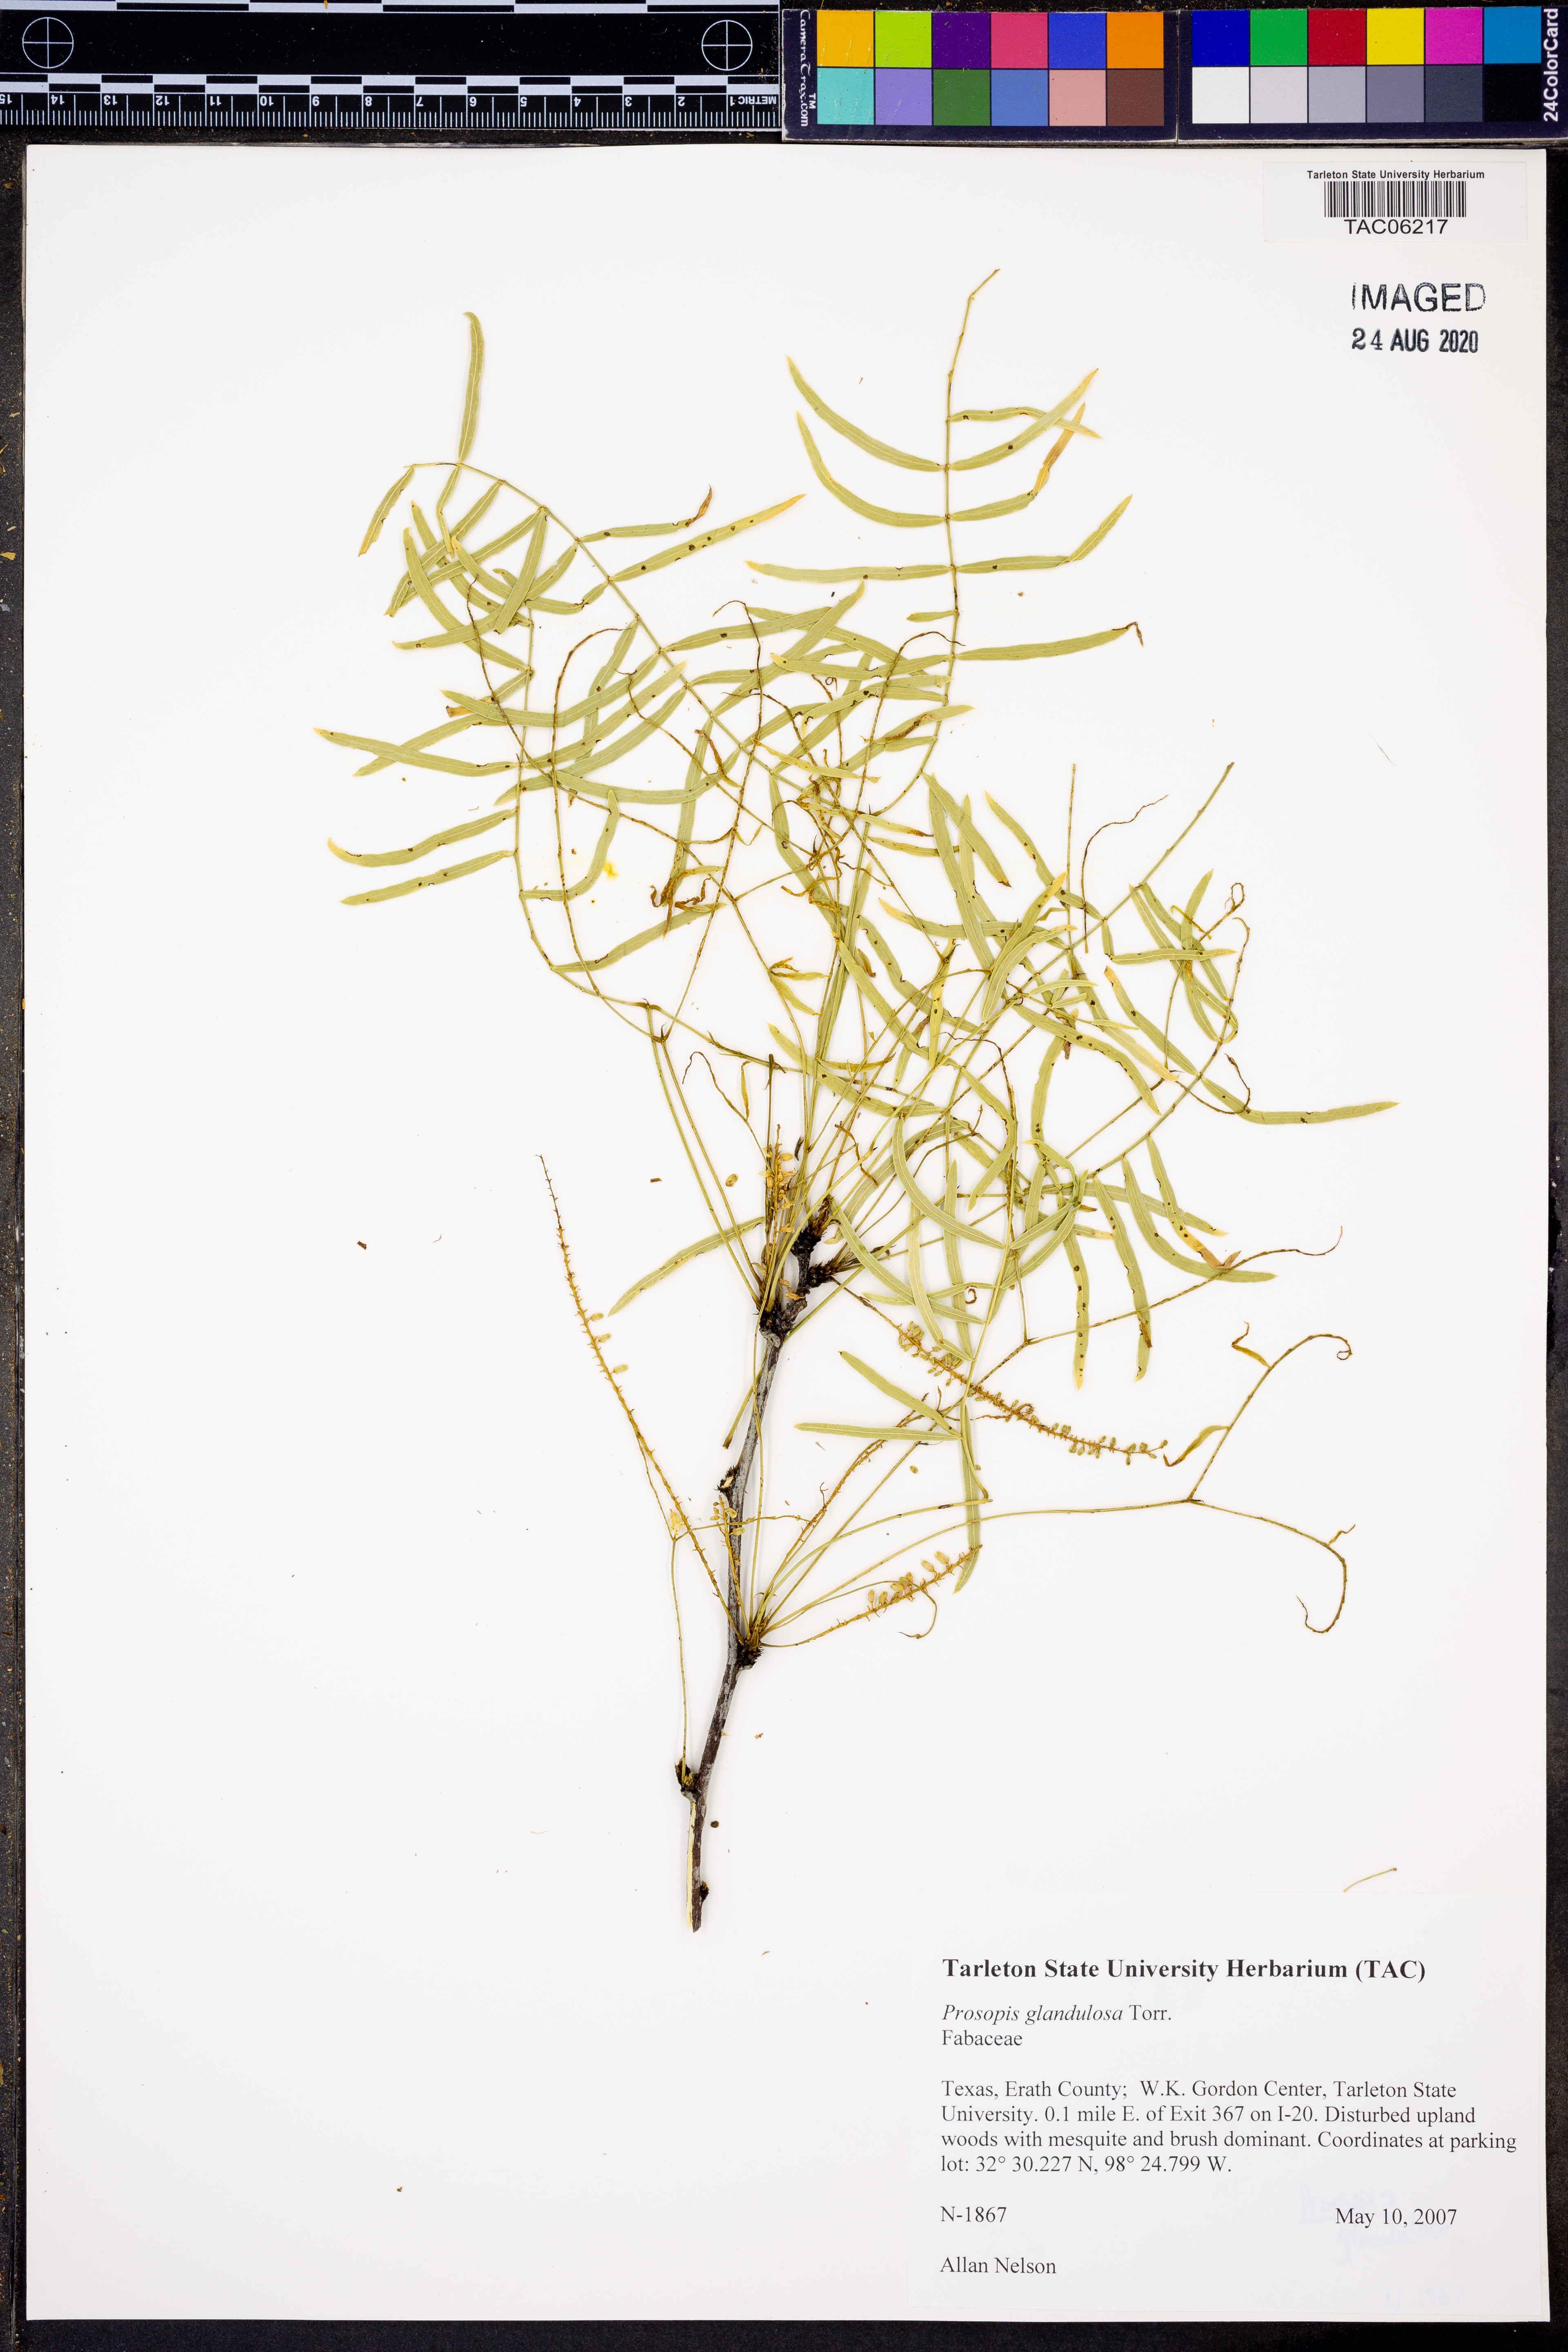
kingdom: Plantae
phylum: Tracheophyta
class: Magnoliopsida
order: Fabales
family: Fabaceae
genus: Prosopis
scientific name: Prosopis glandulosa
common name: Honey mesquite
